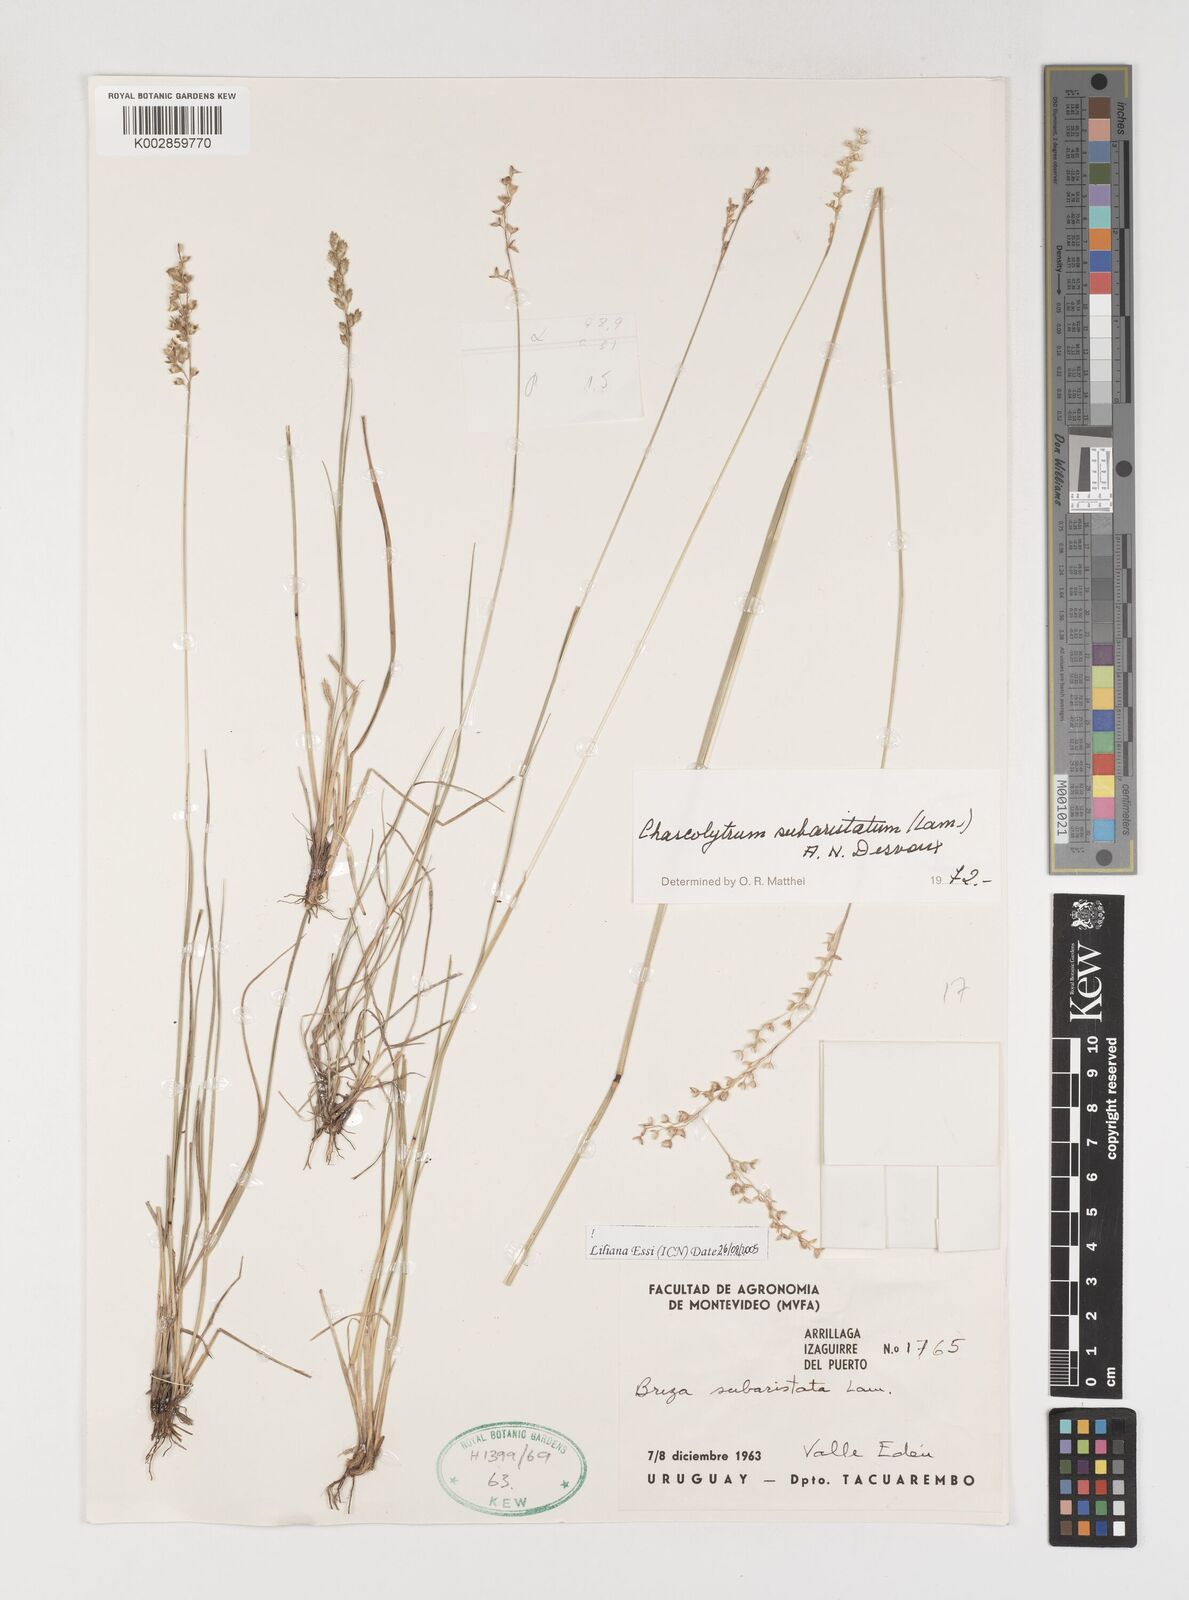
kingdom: Plantae
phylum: Tracheophyta
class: Liliopsida
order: Poales
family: Poaceae
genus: Chascolytrum
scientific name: Chascolytrum subaristatum
